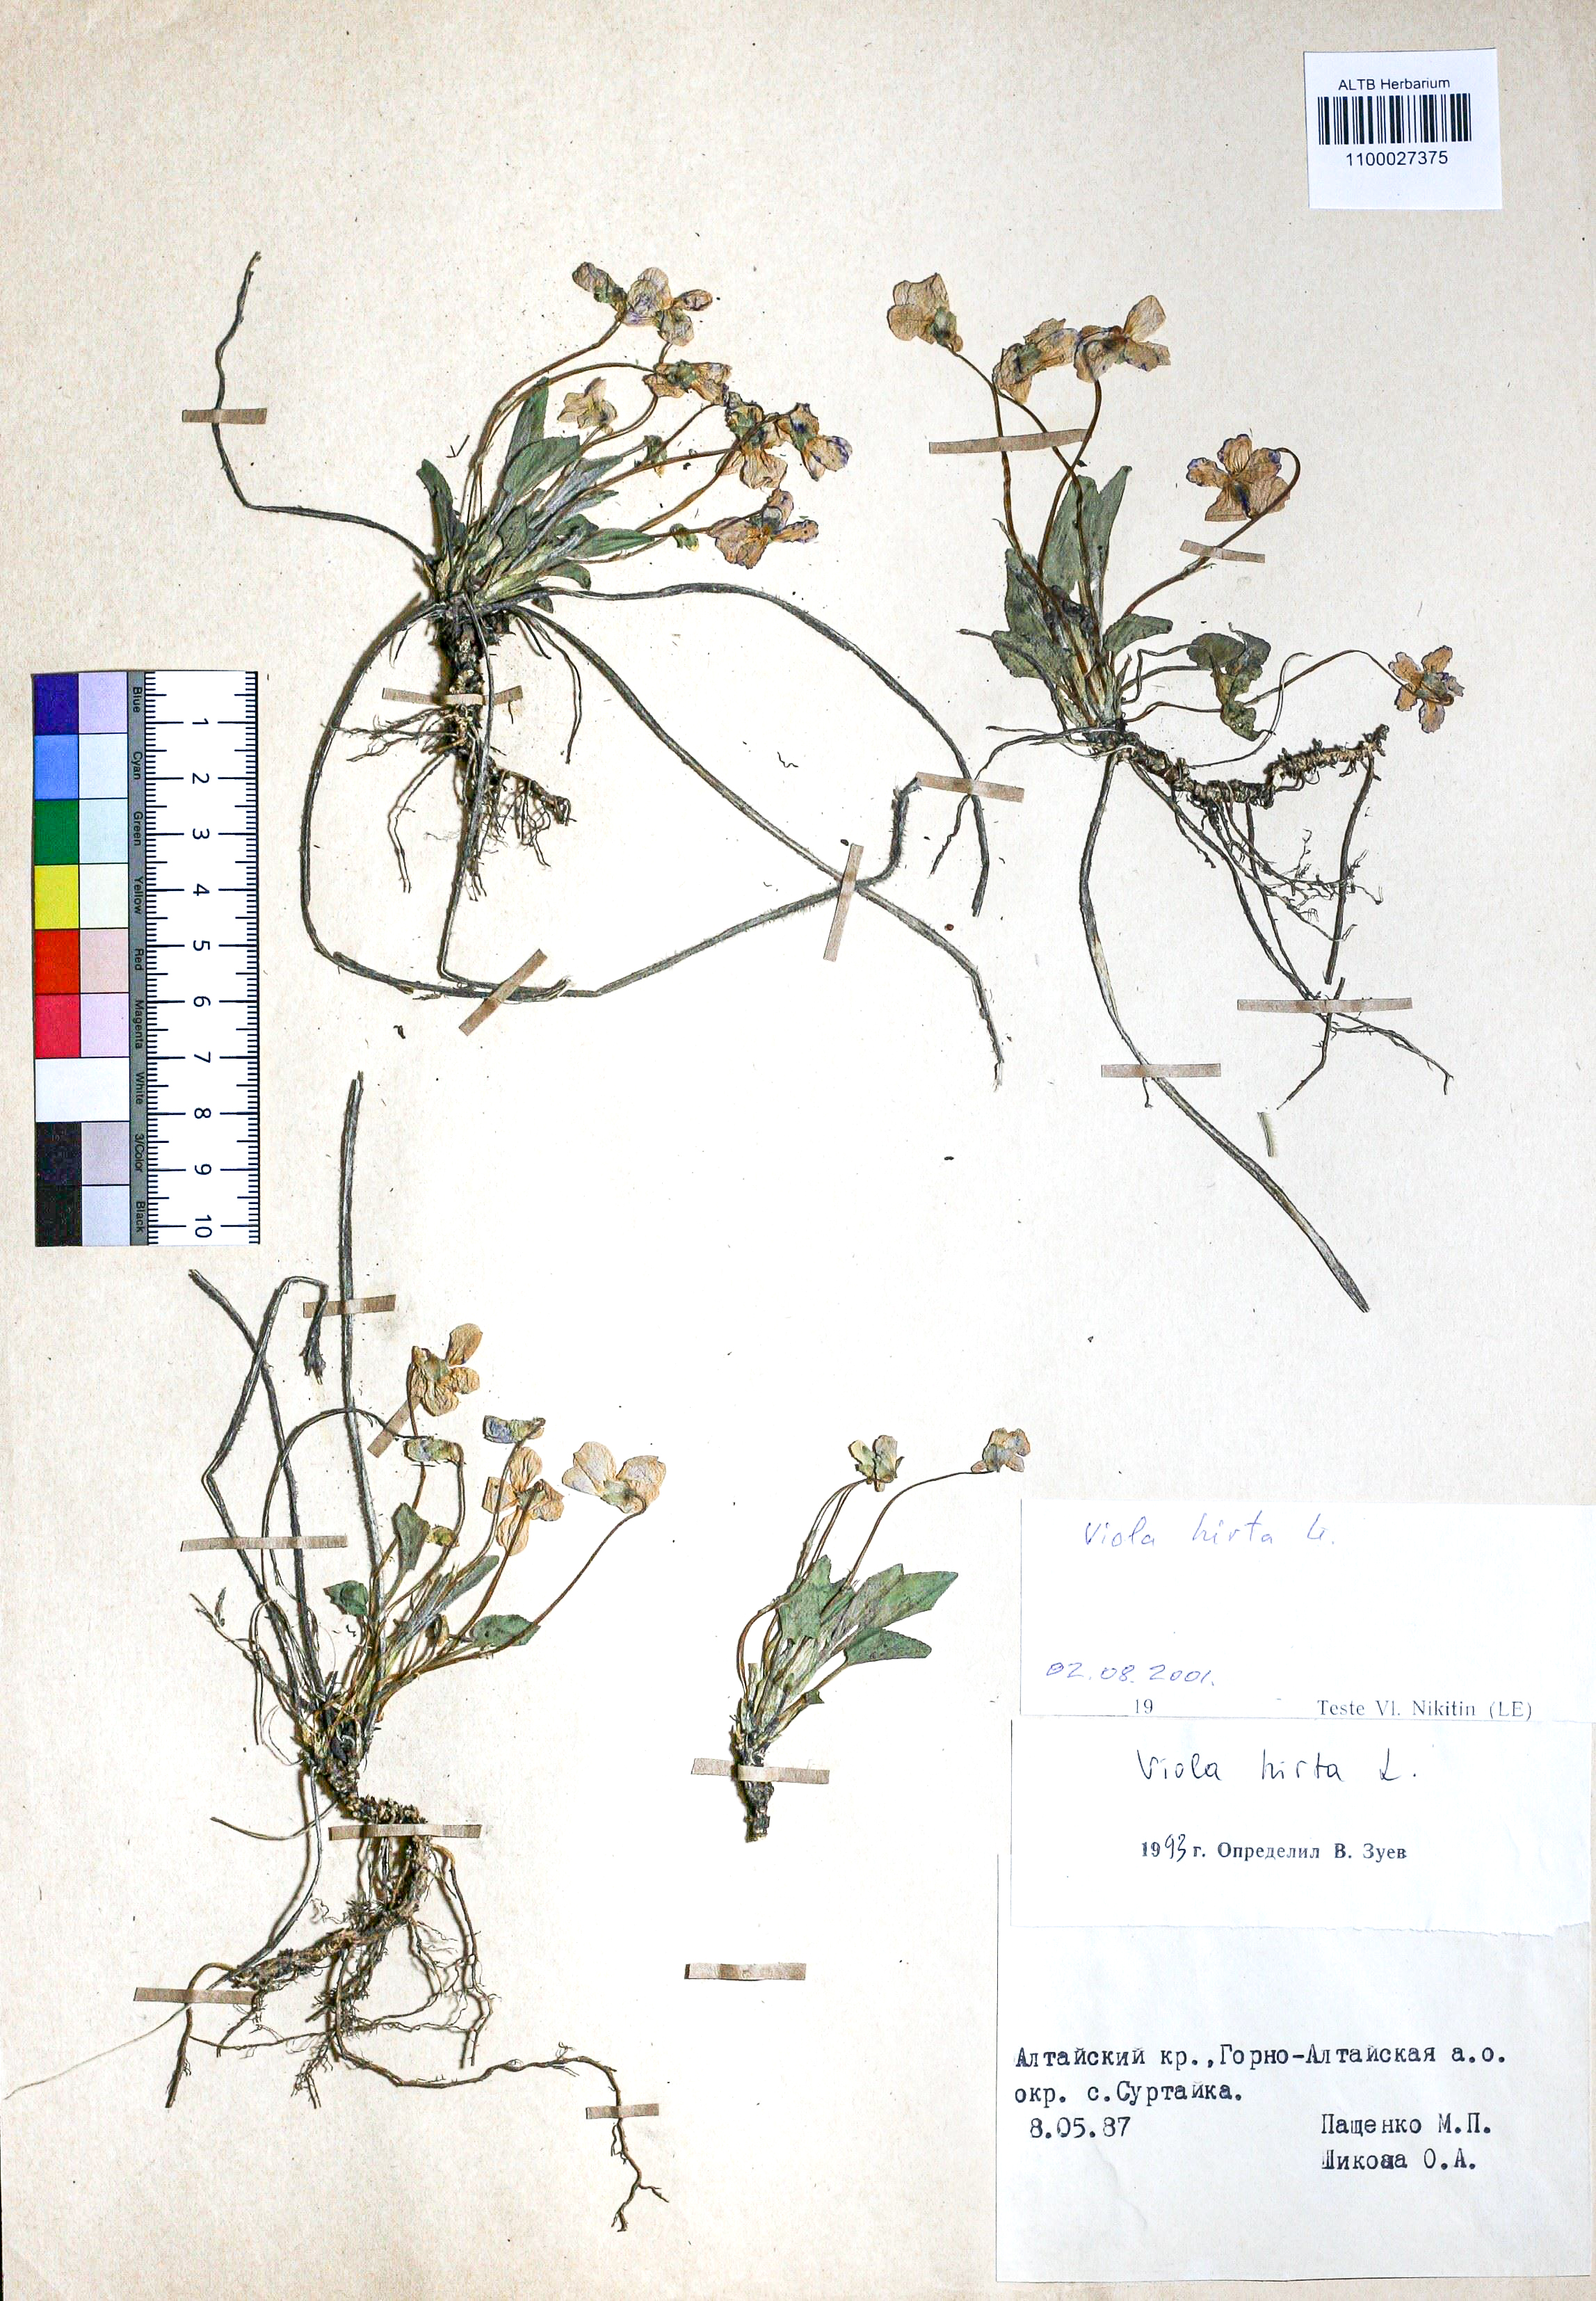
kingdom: Plantae
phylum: Tracheophyta
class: Magnoliopsida
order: Malpighiales
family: Violaceae
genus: Viola
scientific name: Viola hirta
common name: Hairy violet
